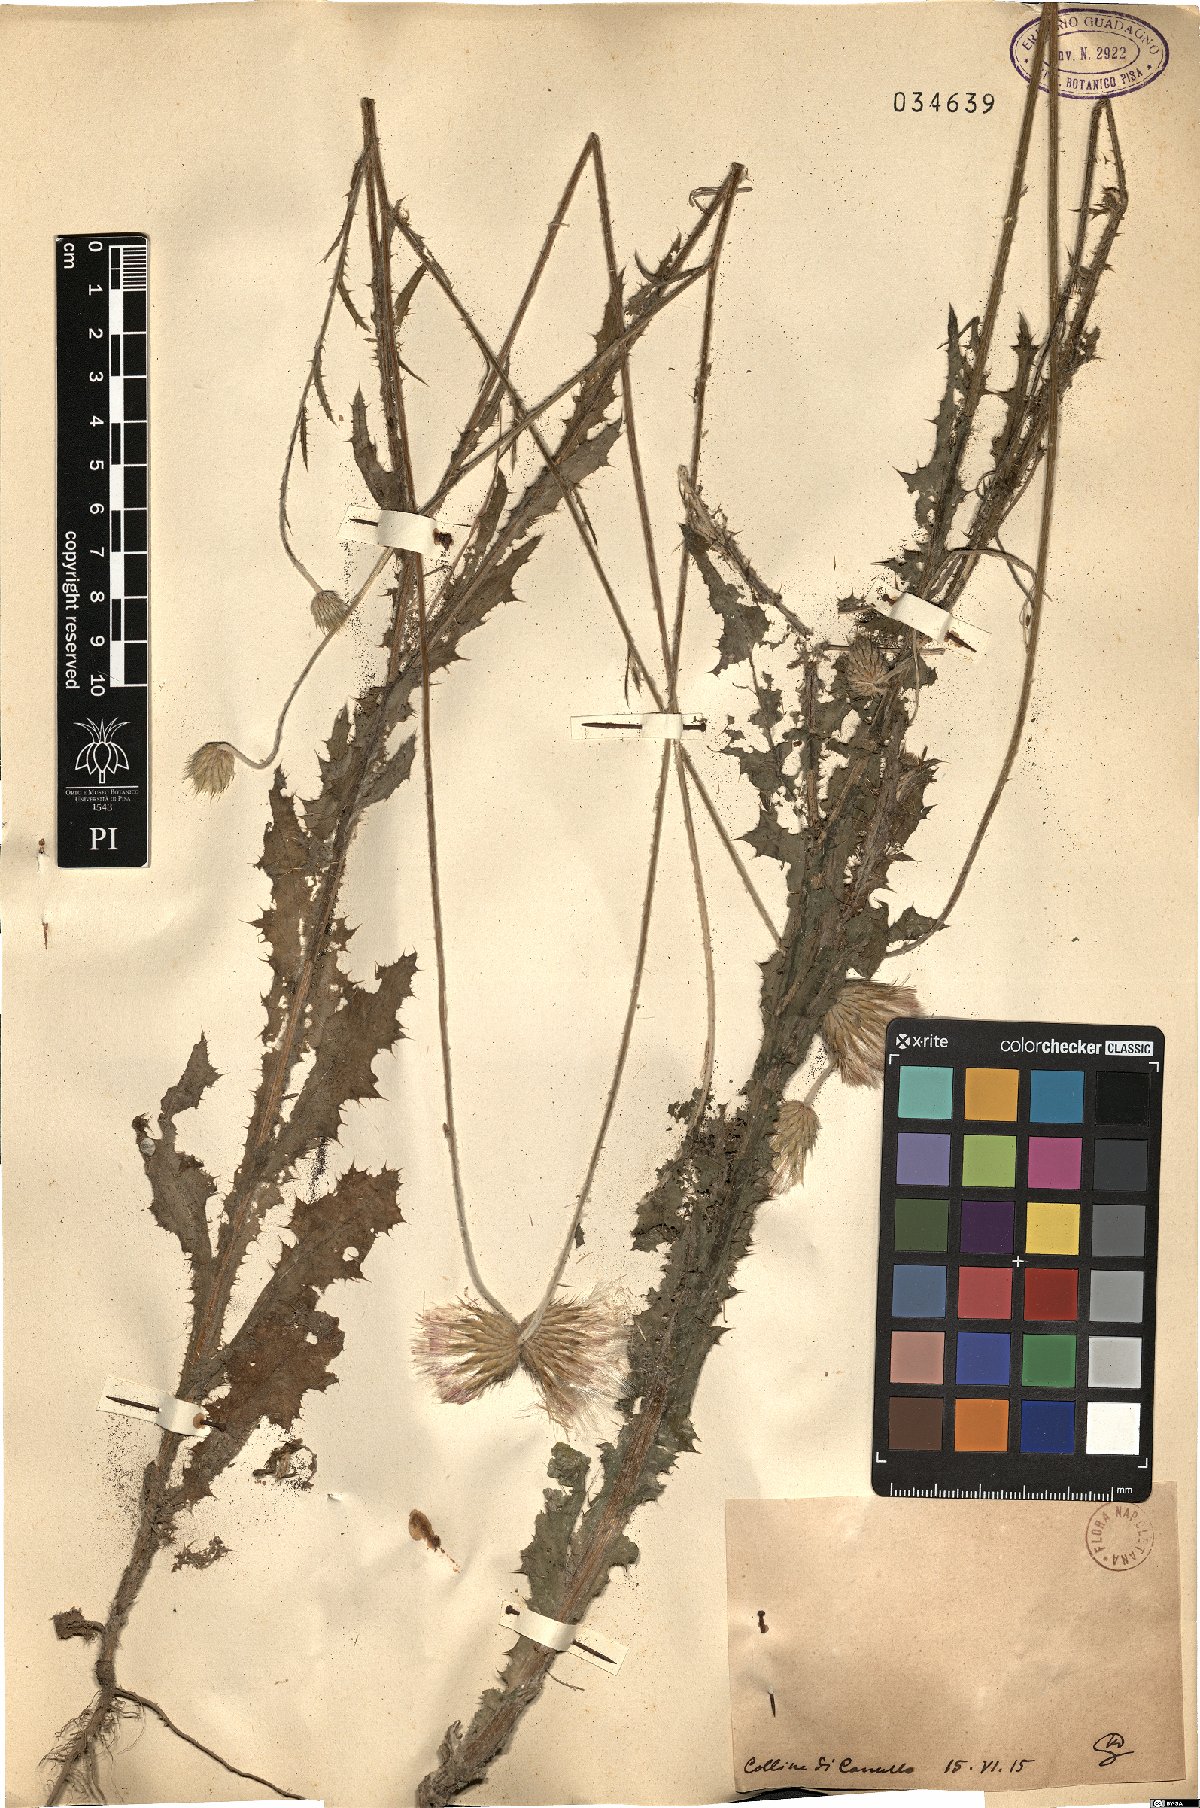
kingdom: Plantae
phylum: Tracheophyta
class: Magnoliopsida
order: Asterales
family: Asteraceae
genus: Galactites
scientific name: Galactites
